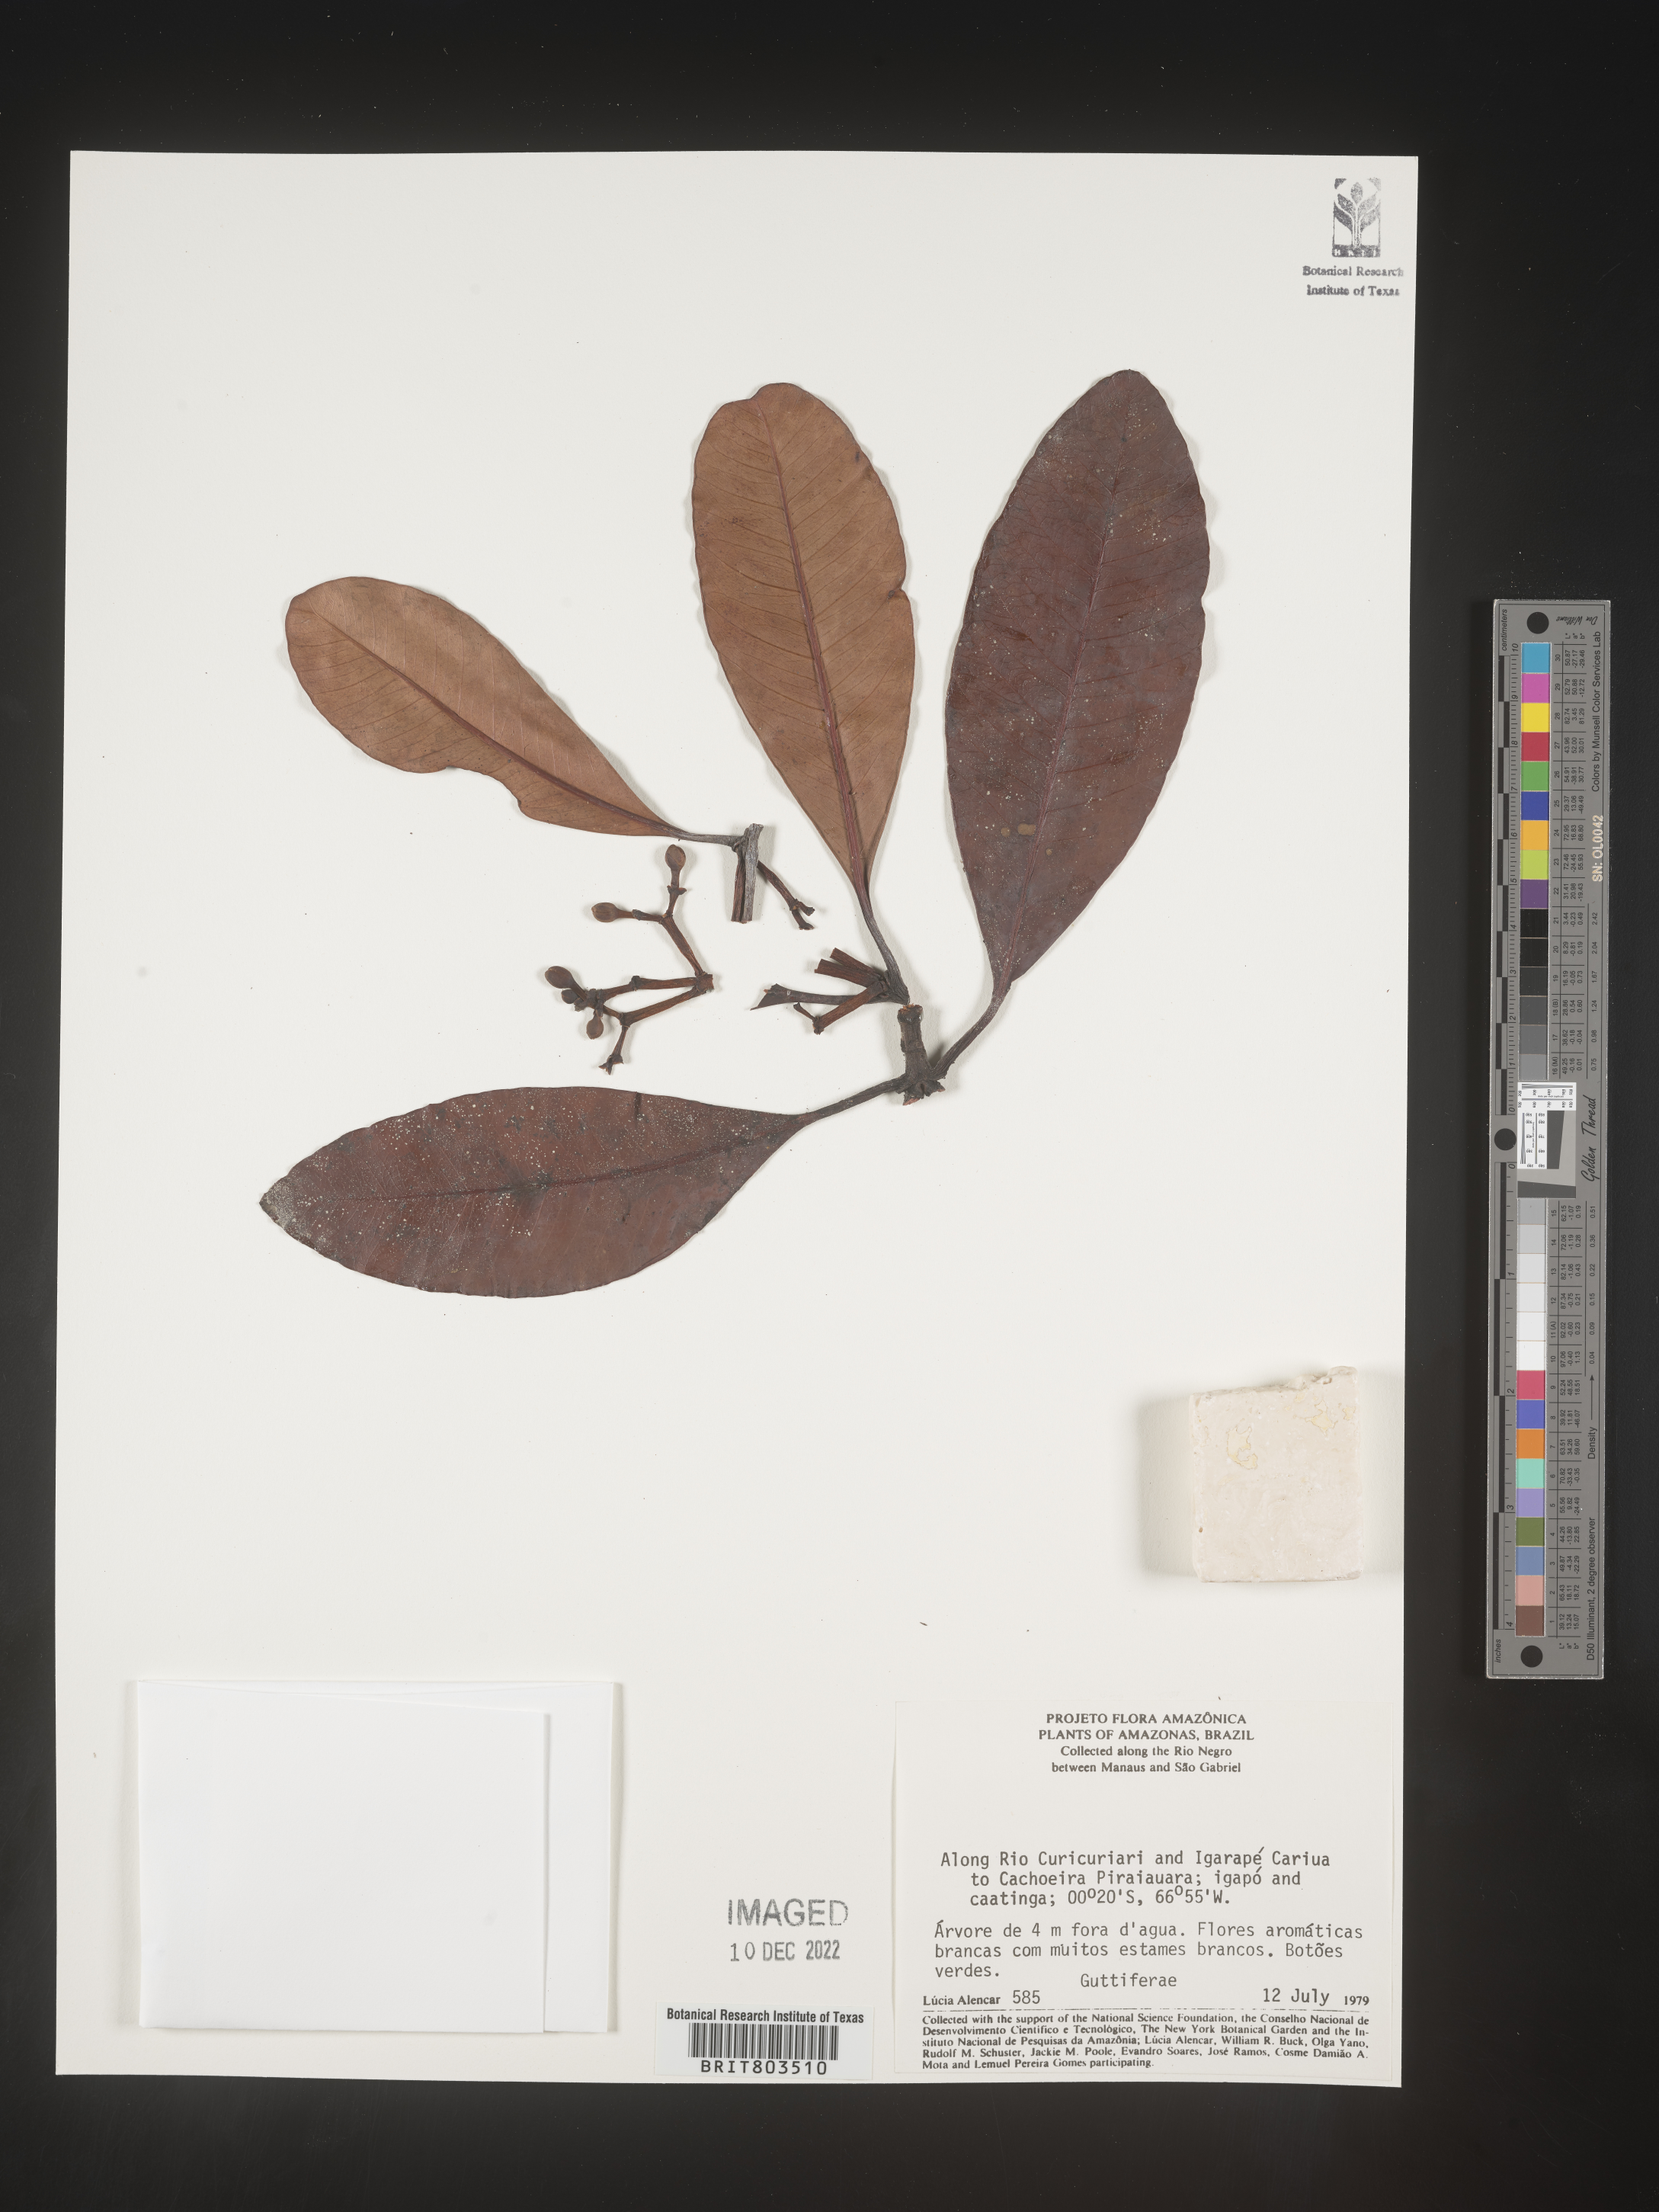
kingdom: Plantae
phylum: Tracheophyta
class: Magnoliopsida
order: Malpighiales
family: Clusiaceae
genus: Tovomita
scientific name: Tovomita
